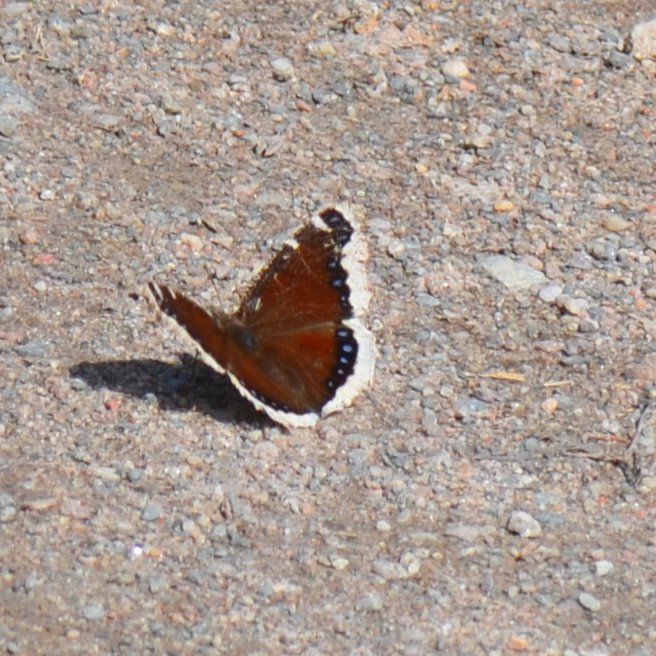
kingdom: Animalia
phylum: Arthropoda
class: Insecta
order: Lepidoptera
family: Nymphalidae
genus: Nymphalis
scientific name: Nymphalis antiopa
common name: Mourning Cloak
